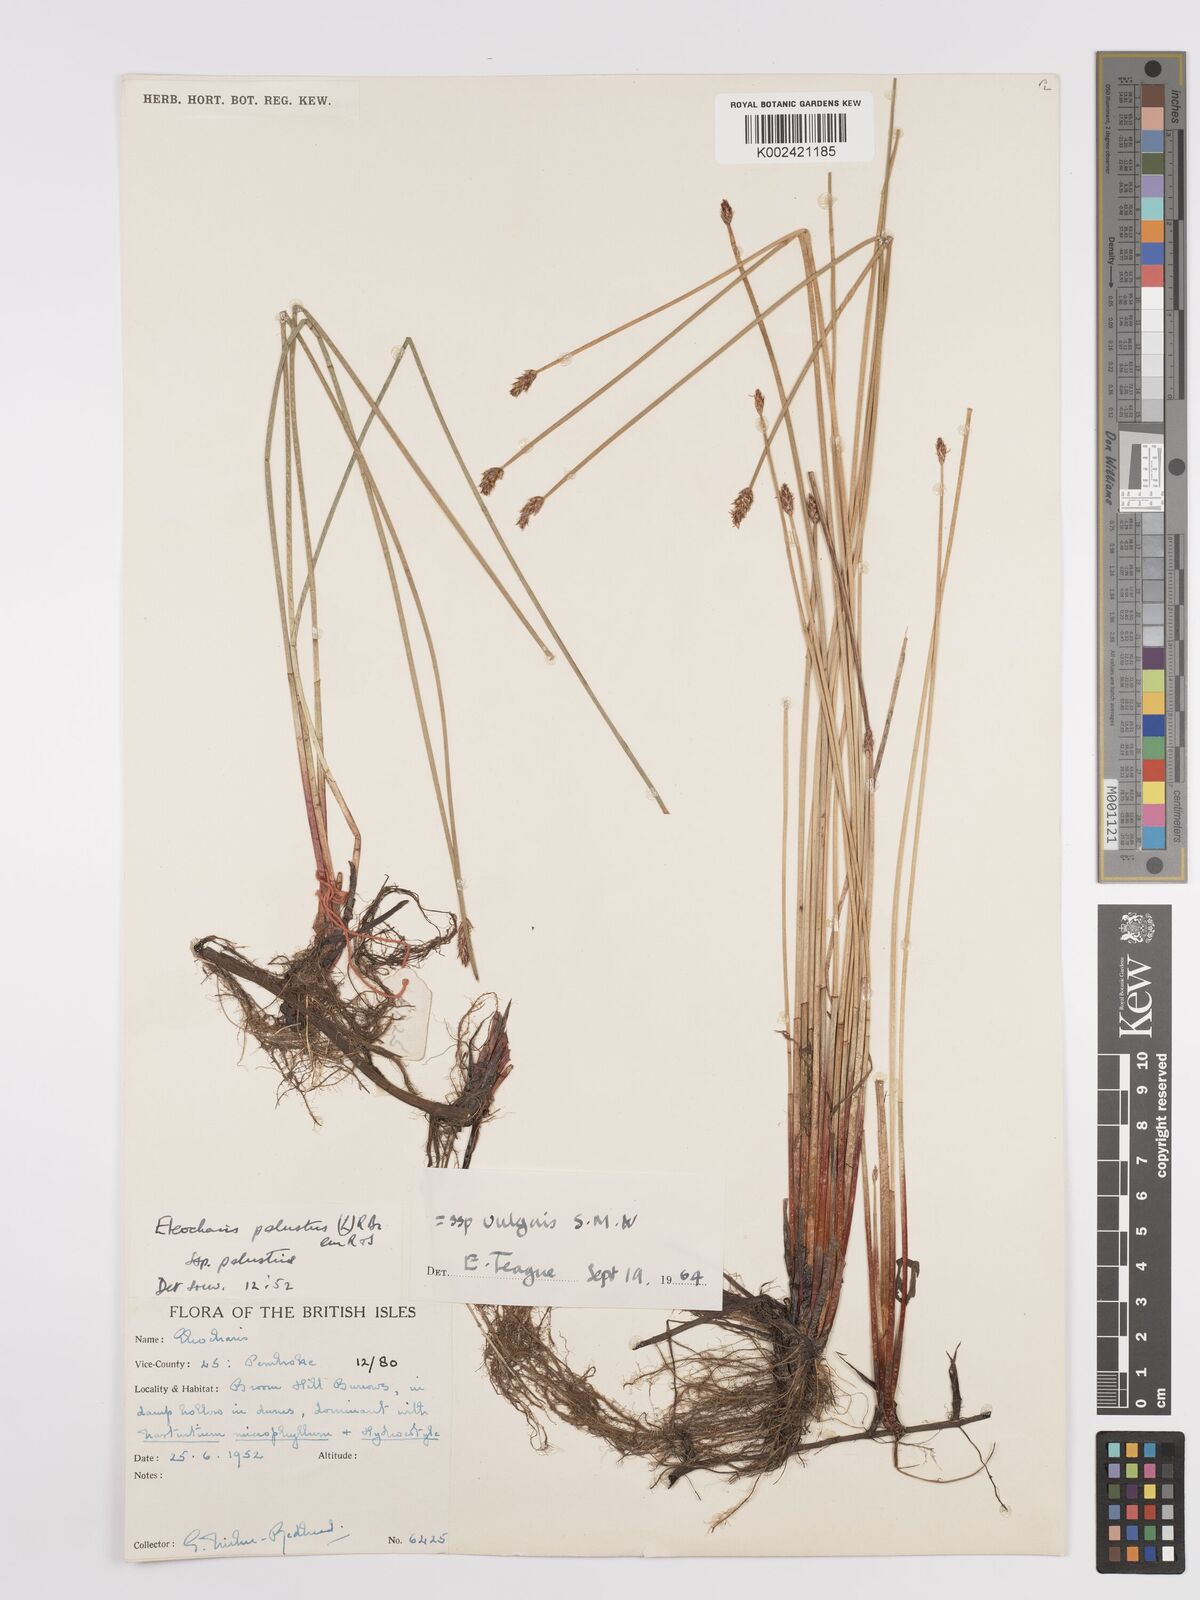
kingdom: Plantae
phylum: Tracheophyta
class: Liliopsida
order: Poales
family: Cyperaceae
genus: Eleocharis
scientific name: Eleocharis palustris
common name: Common spike-rush
